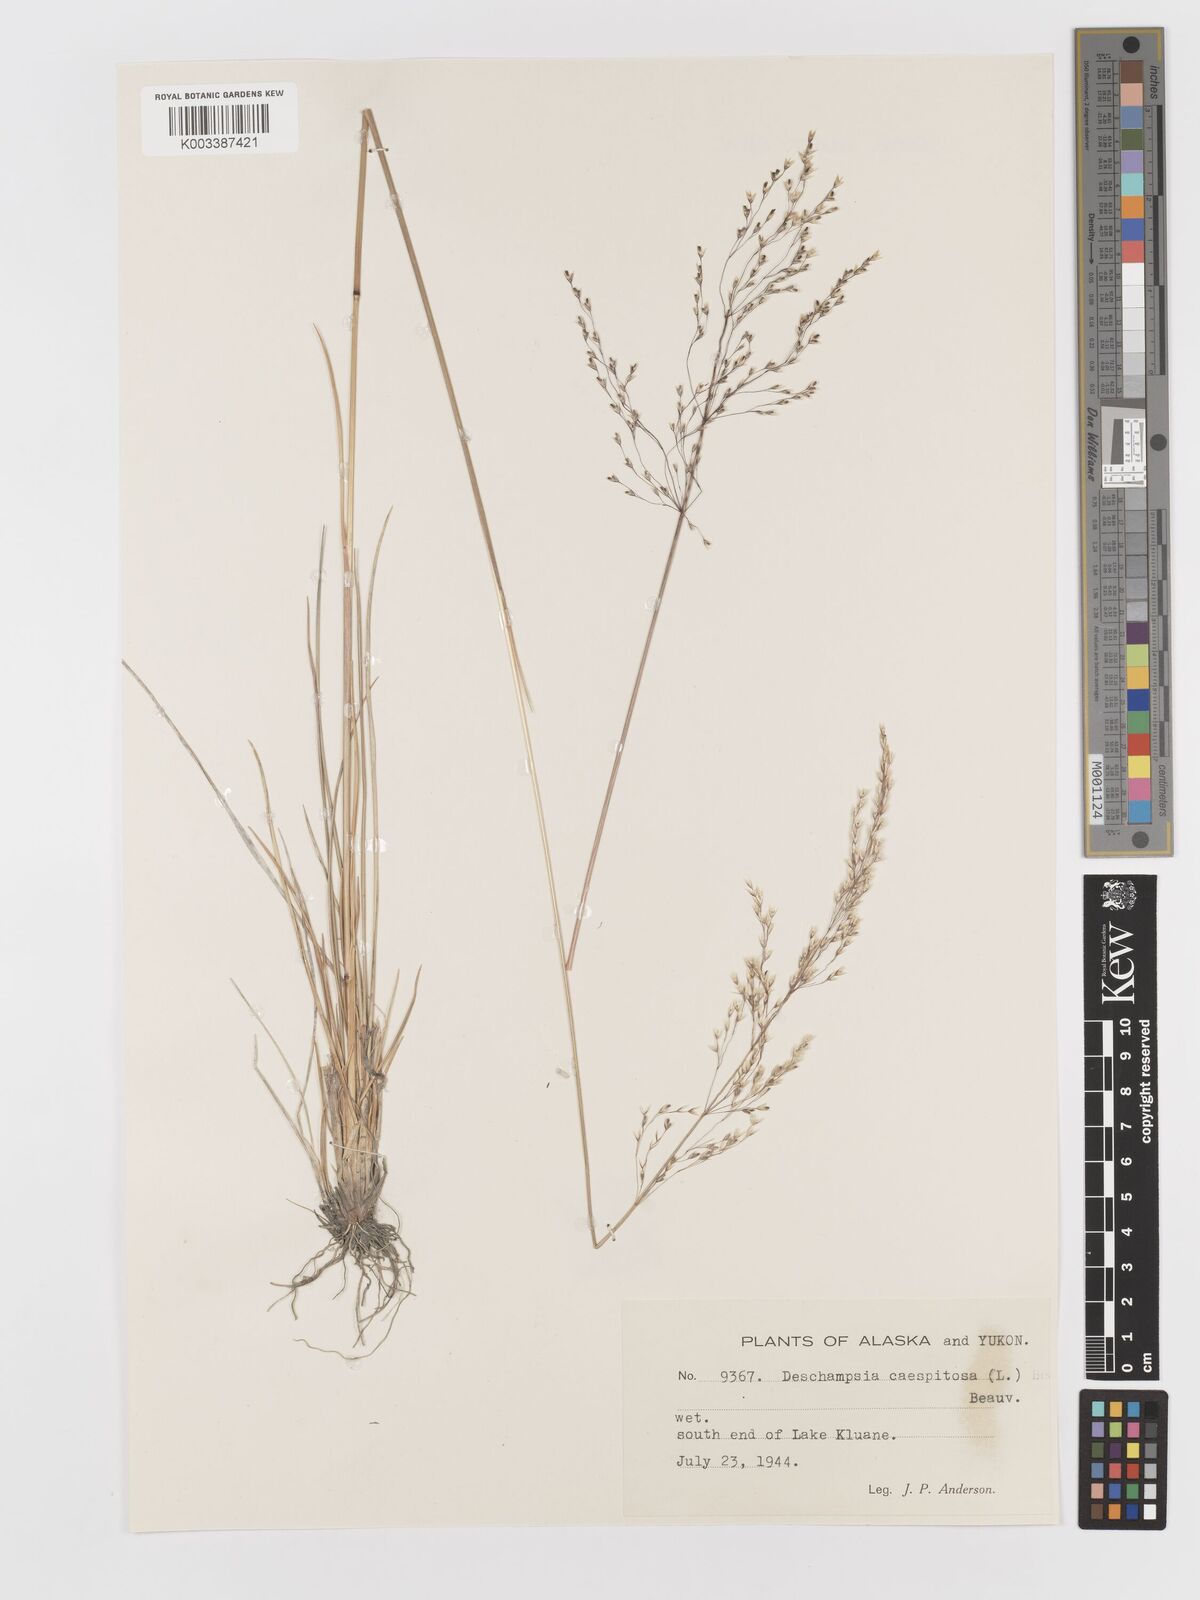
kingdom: Plantae
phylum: Tracheophyta
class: Liliopsida
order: Poales
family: Poaceae
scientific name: Poaceae
